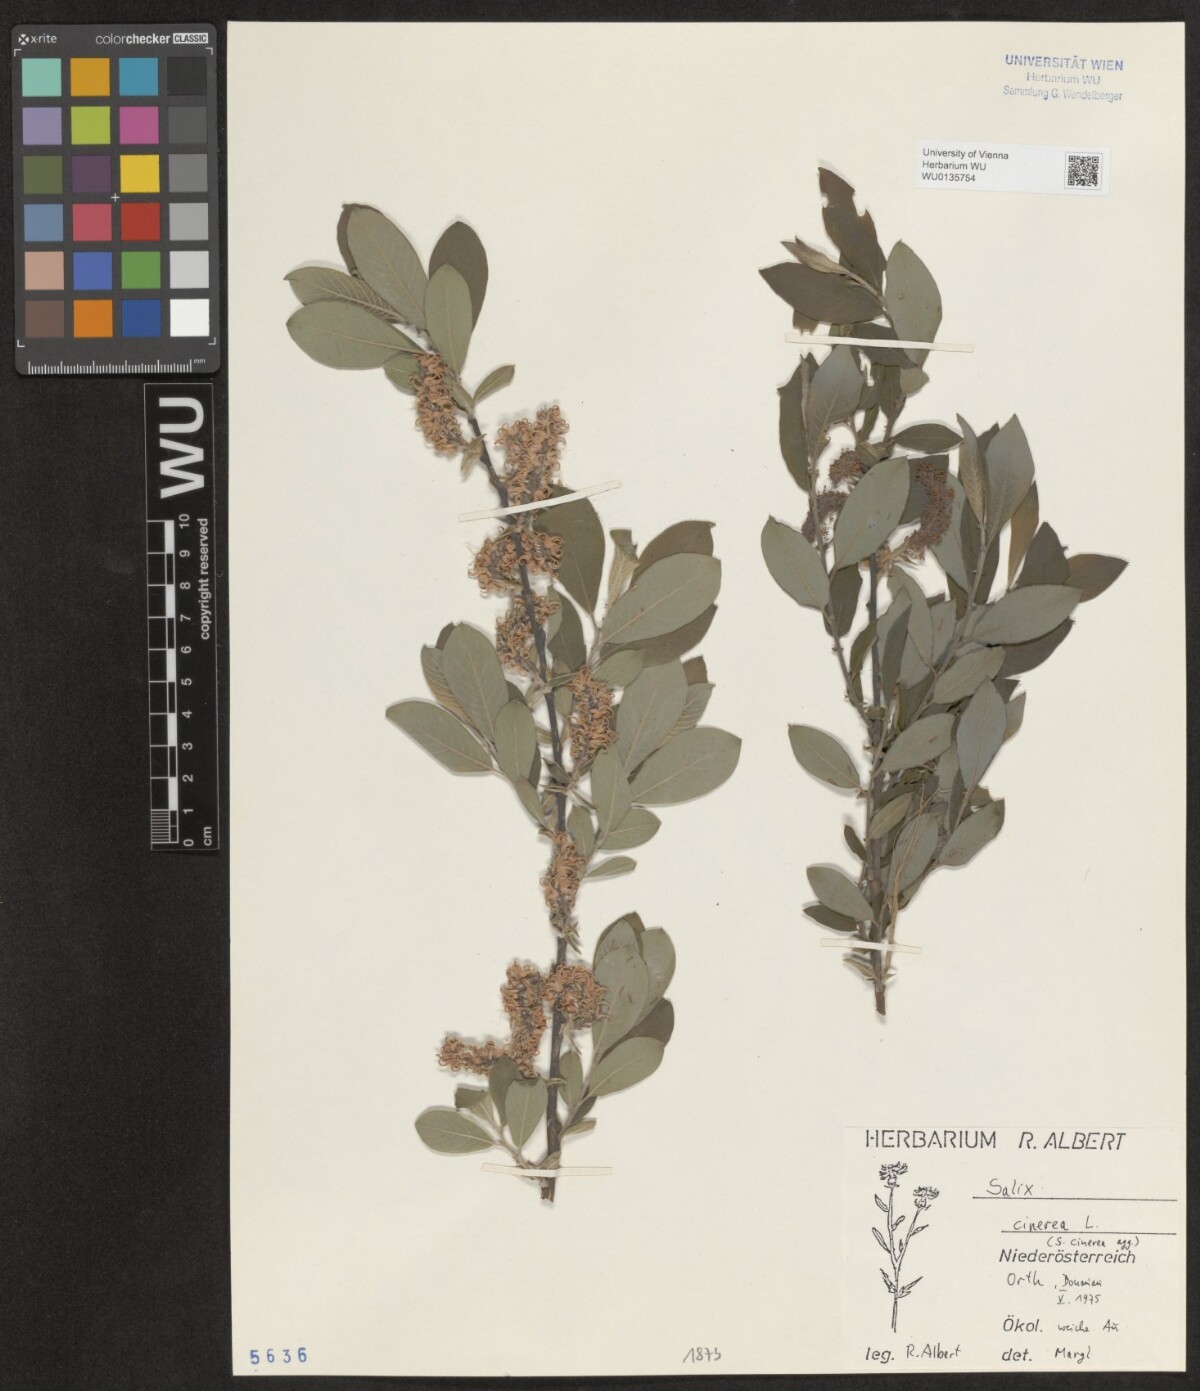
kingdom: Plantae
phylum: Tracheophyta
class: Magnoliopsida
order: Malpighiales
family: Salicaceae
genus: Salix
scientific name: Salix cinerea
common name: Common sallow
